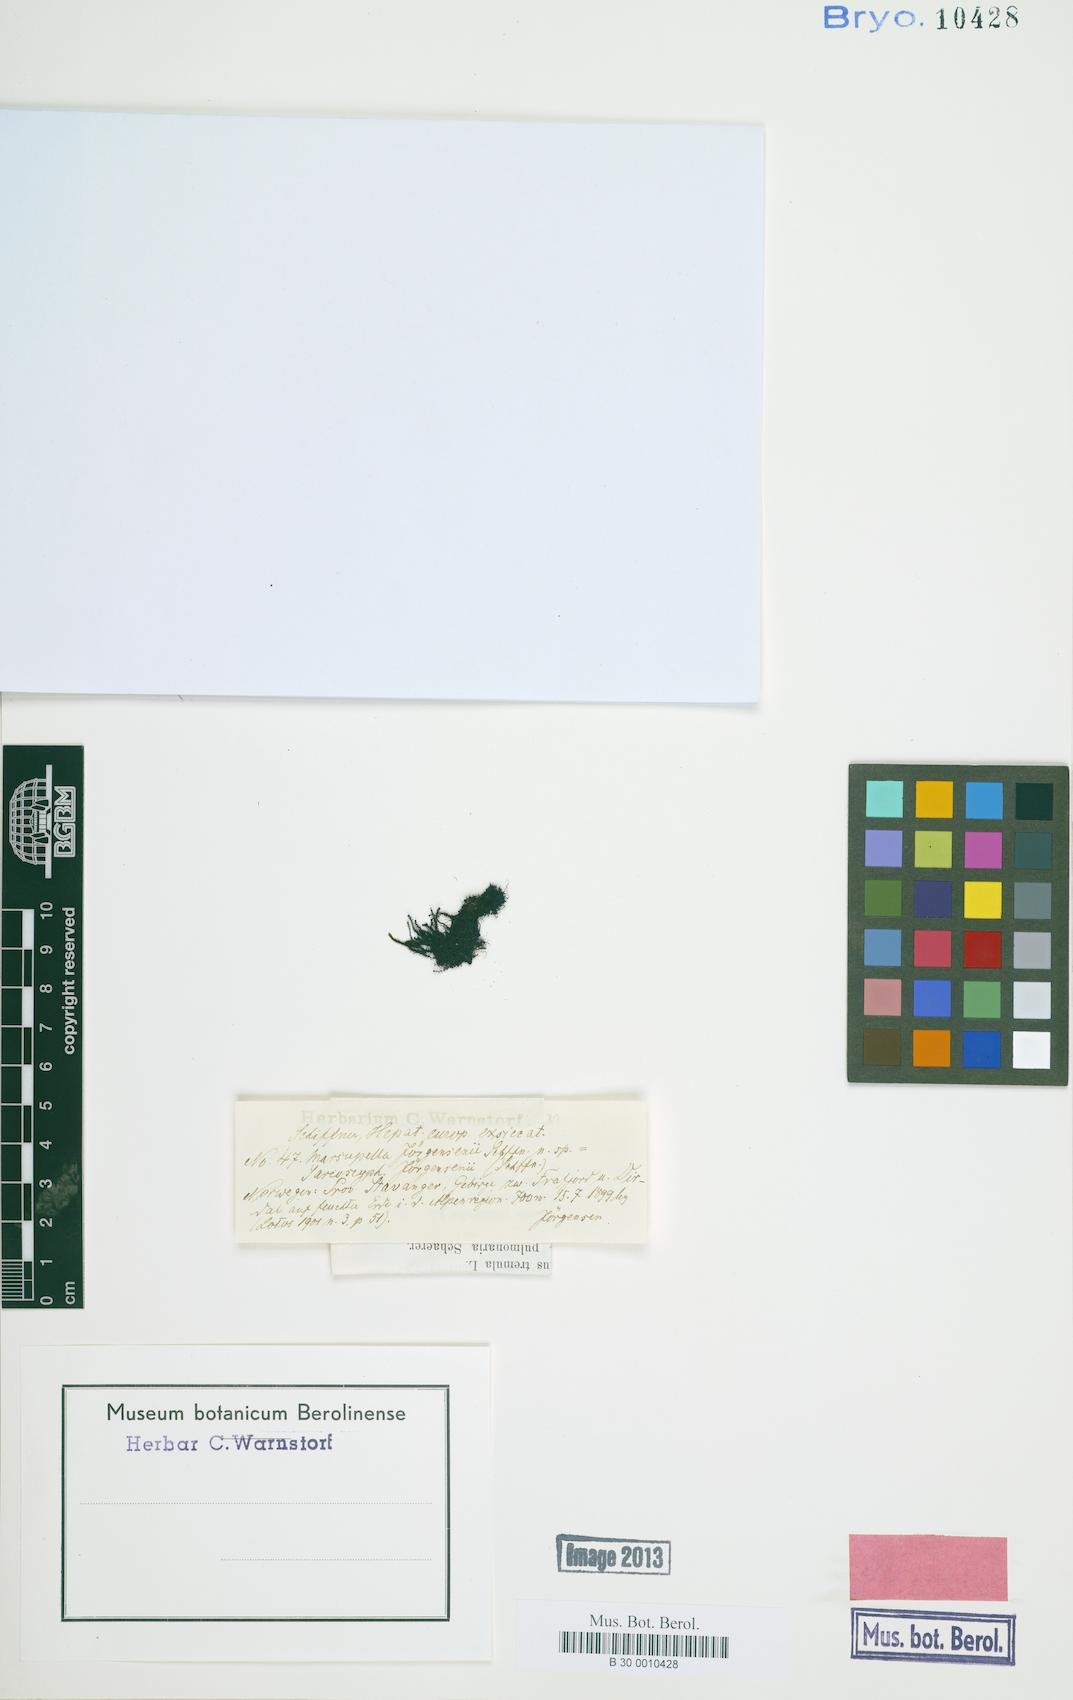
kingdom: Plantae
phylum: Marchantiophyta
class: Jungermanniopsida
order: Jungermanniales
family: Gymnomitriaceae
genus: Marsupella
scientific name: Marsupella
